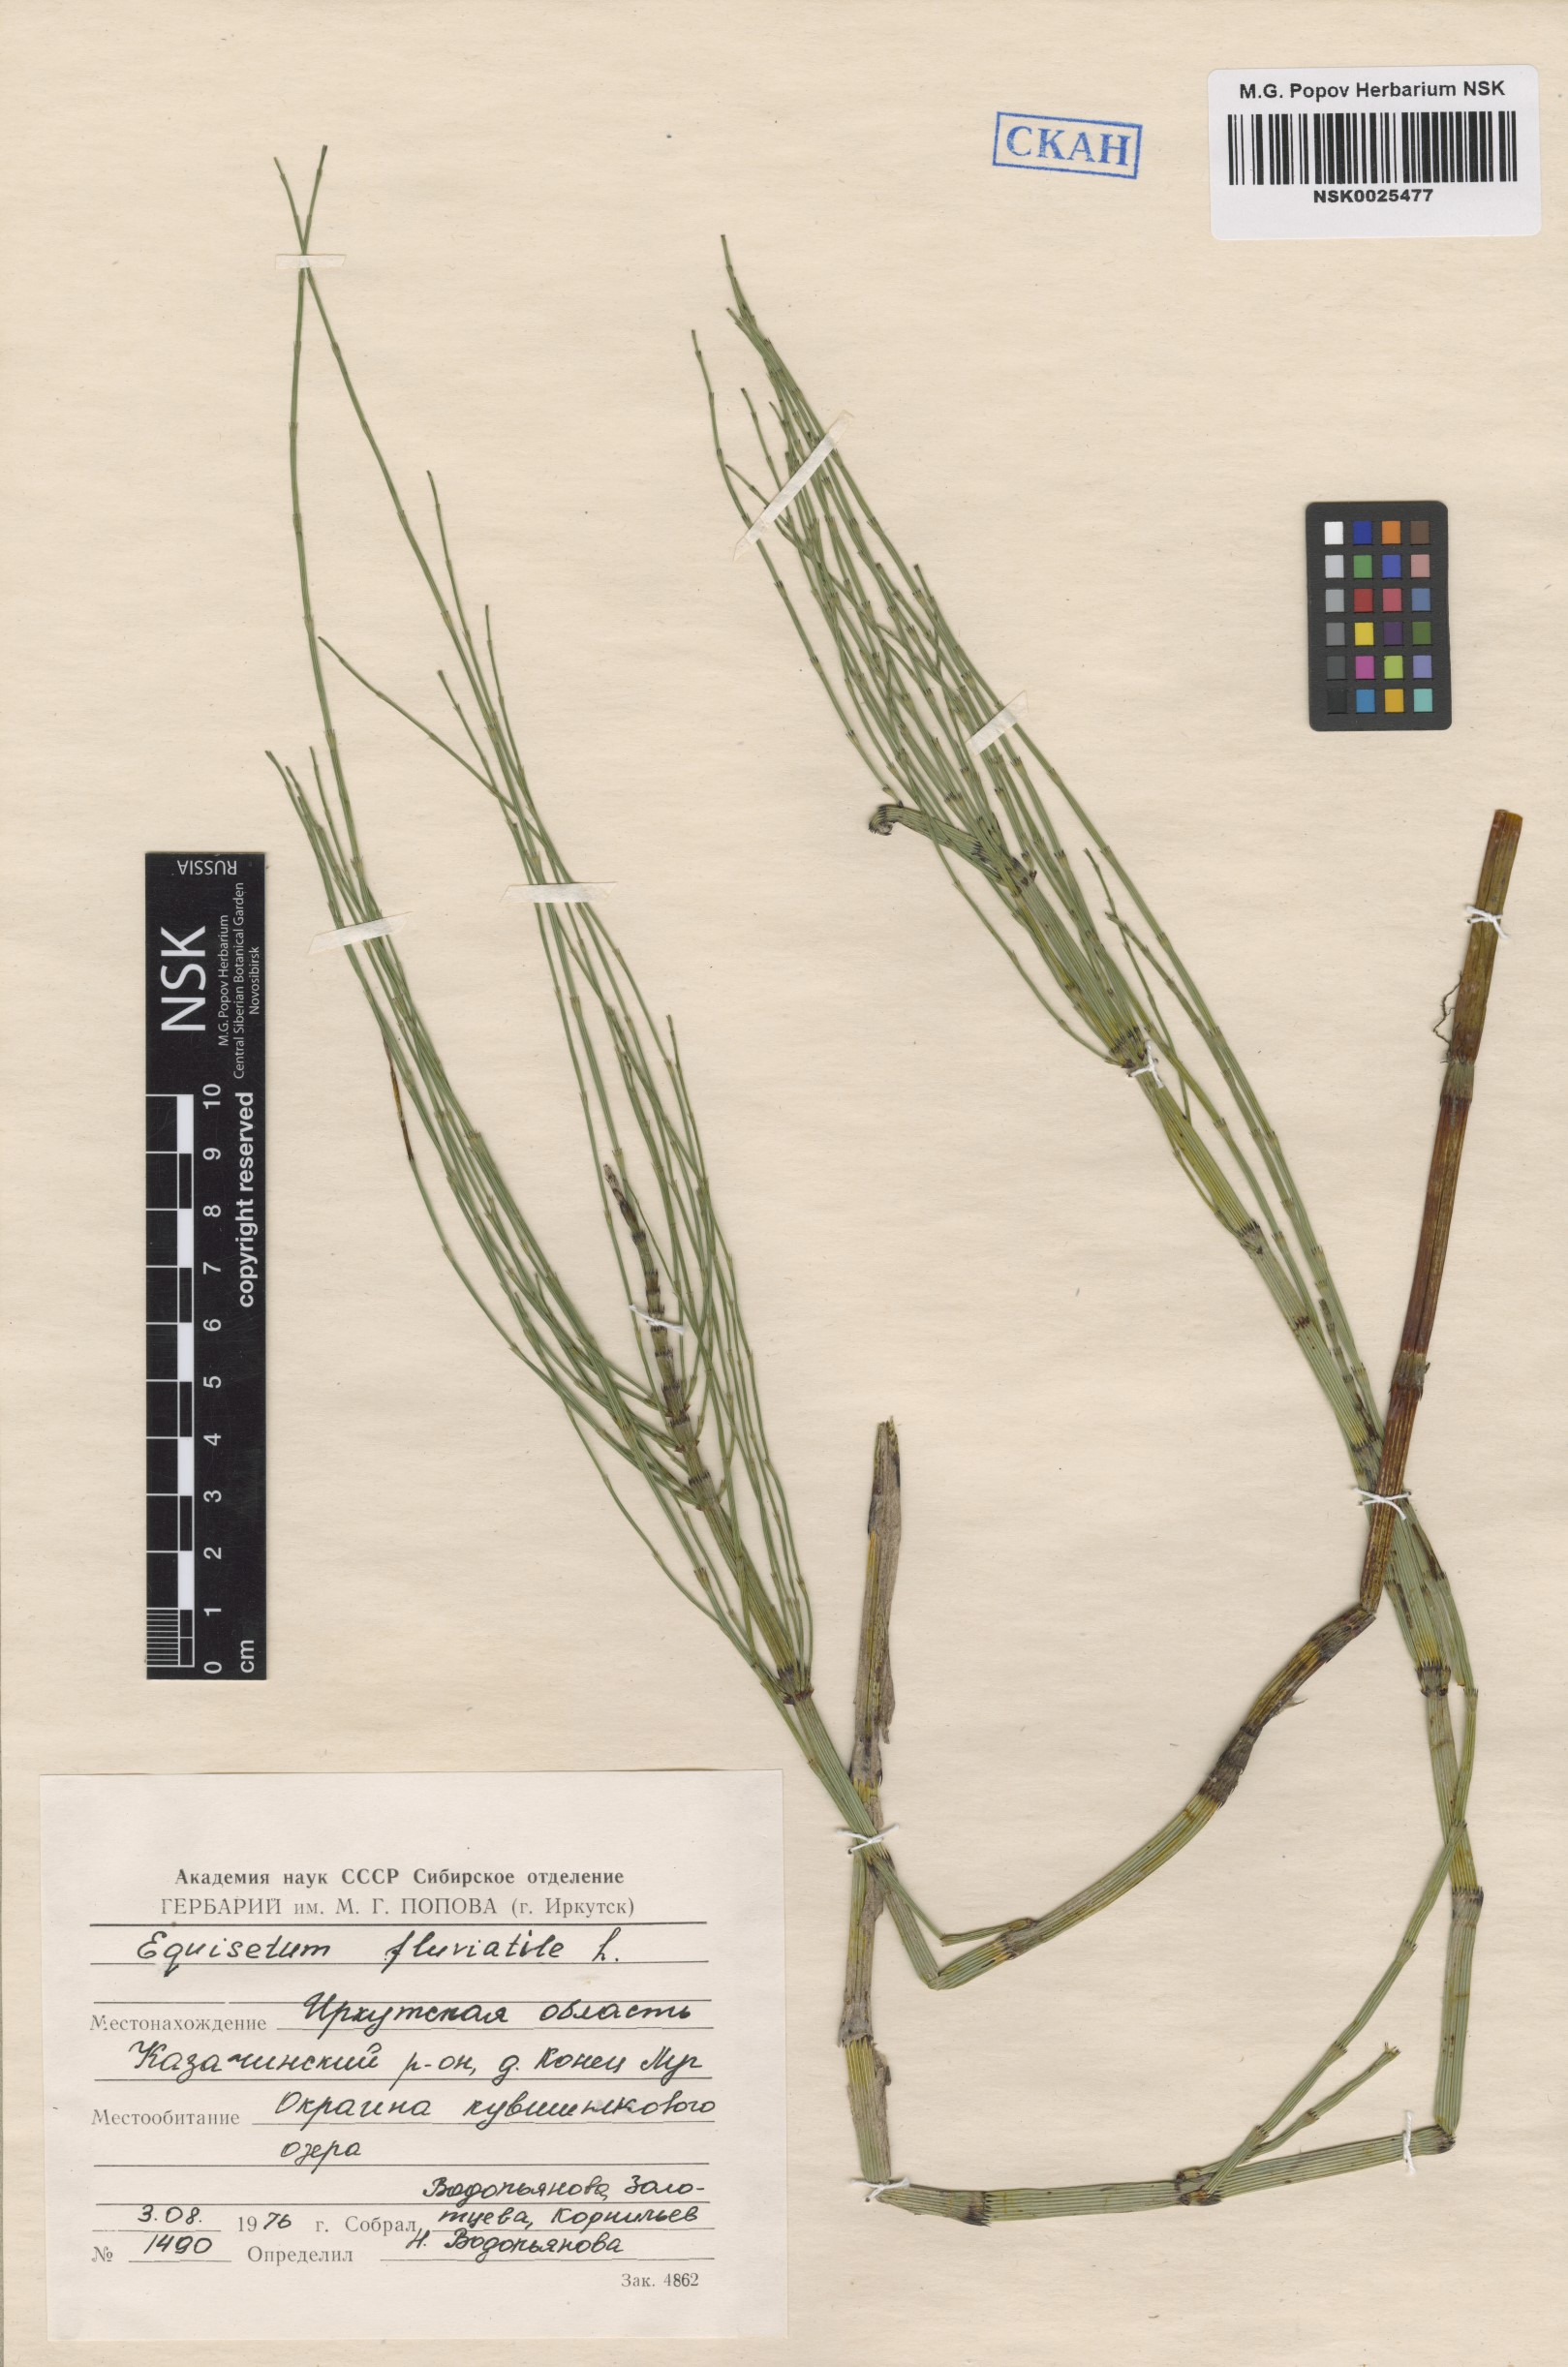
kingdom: Plantae
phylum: Tracheophyta
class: Polypodiopsida
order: Equisetales
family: Equisetaceae
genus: Equisetum
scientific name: Equisetum fluviatile
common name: Water horsetail
